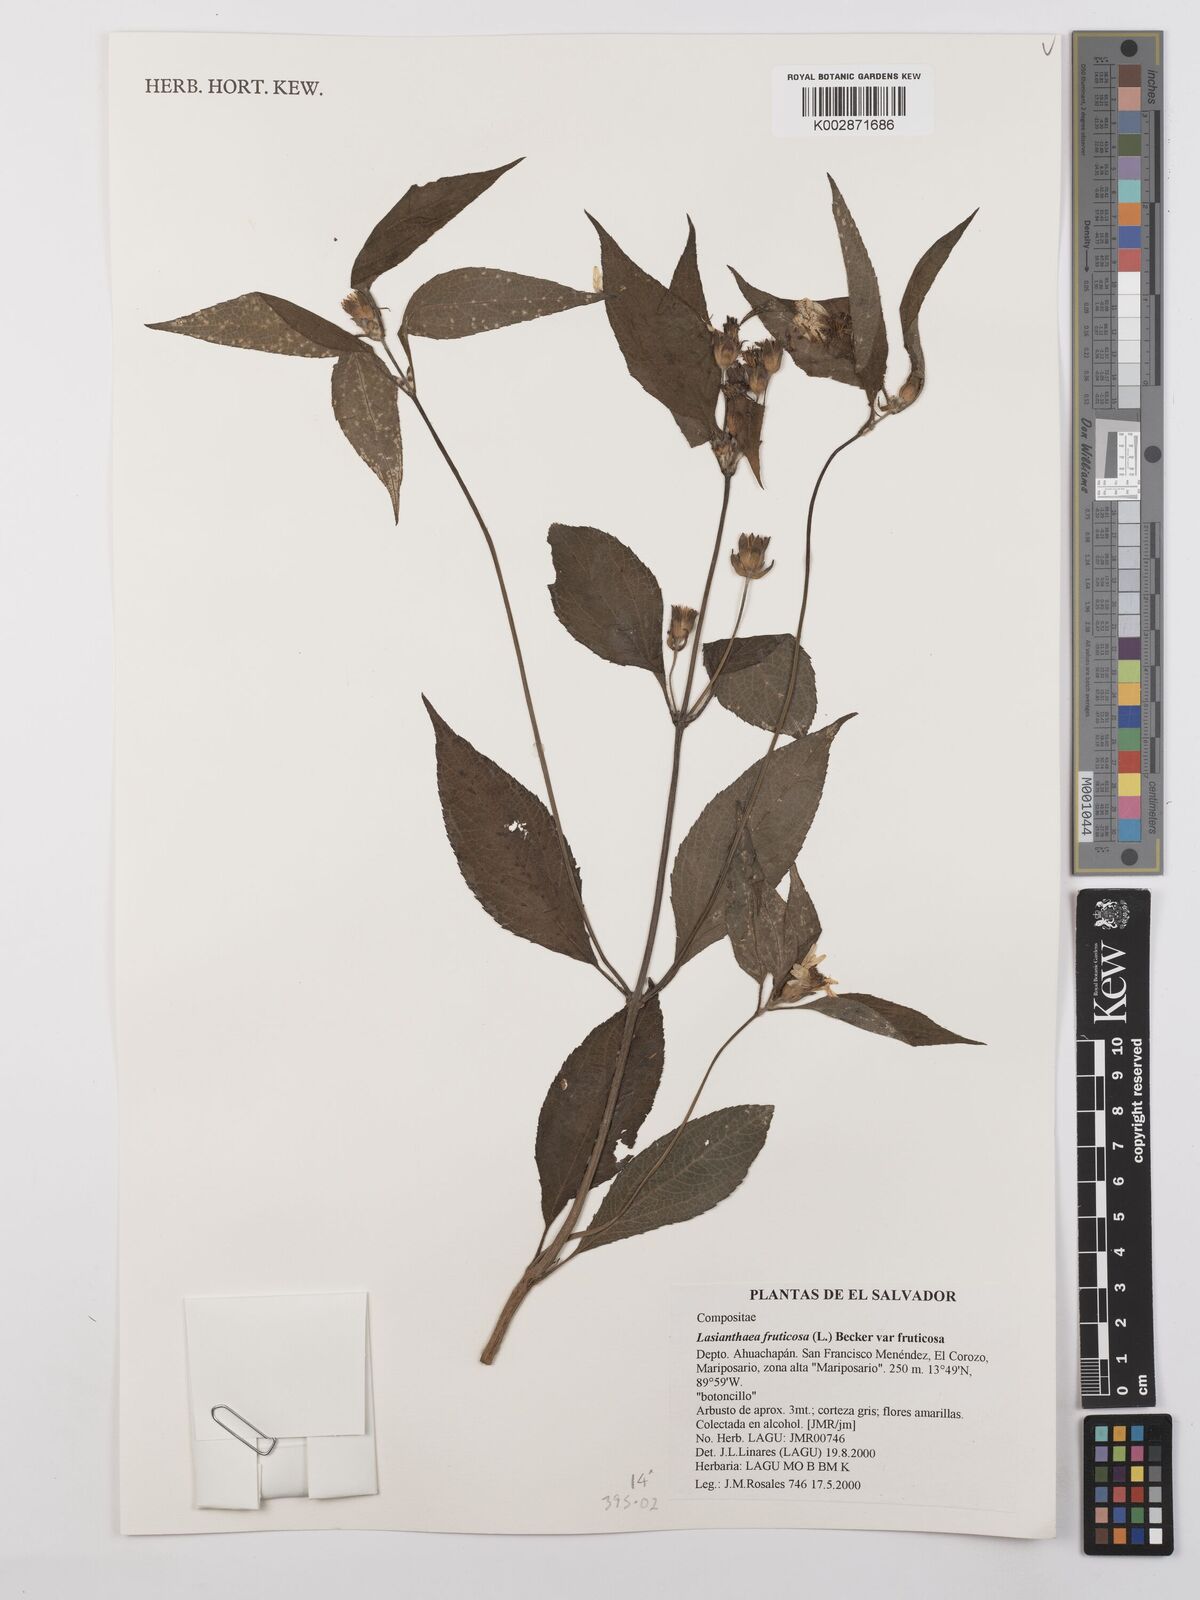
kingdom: Plantae
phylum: Tracheophyta
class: Magnoliopsida
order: Asterales
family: Asteraceae
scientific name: Asteraceae
